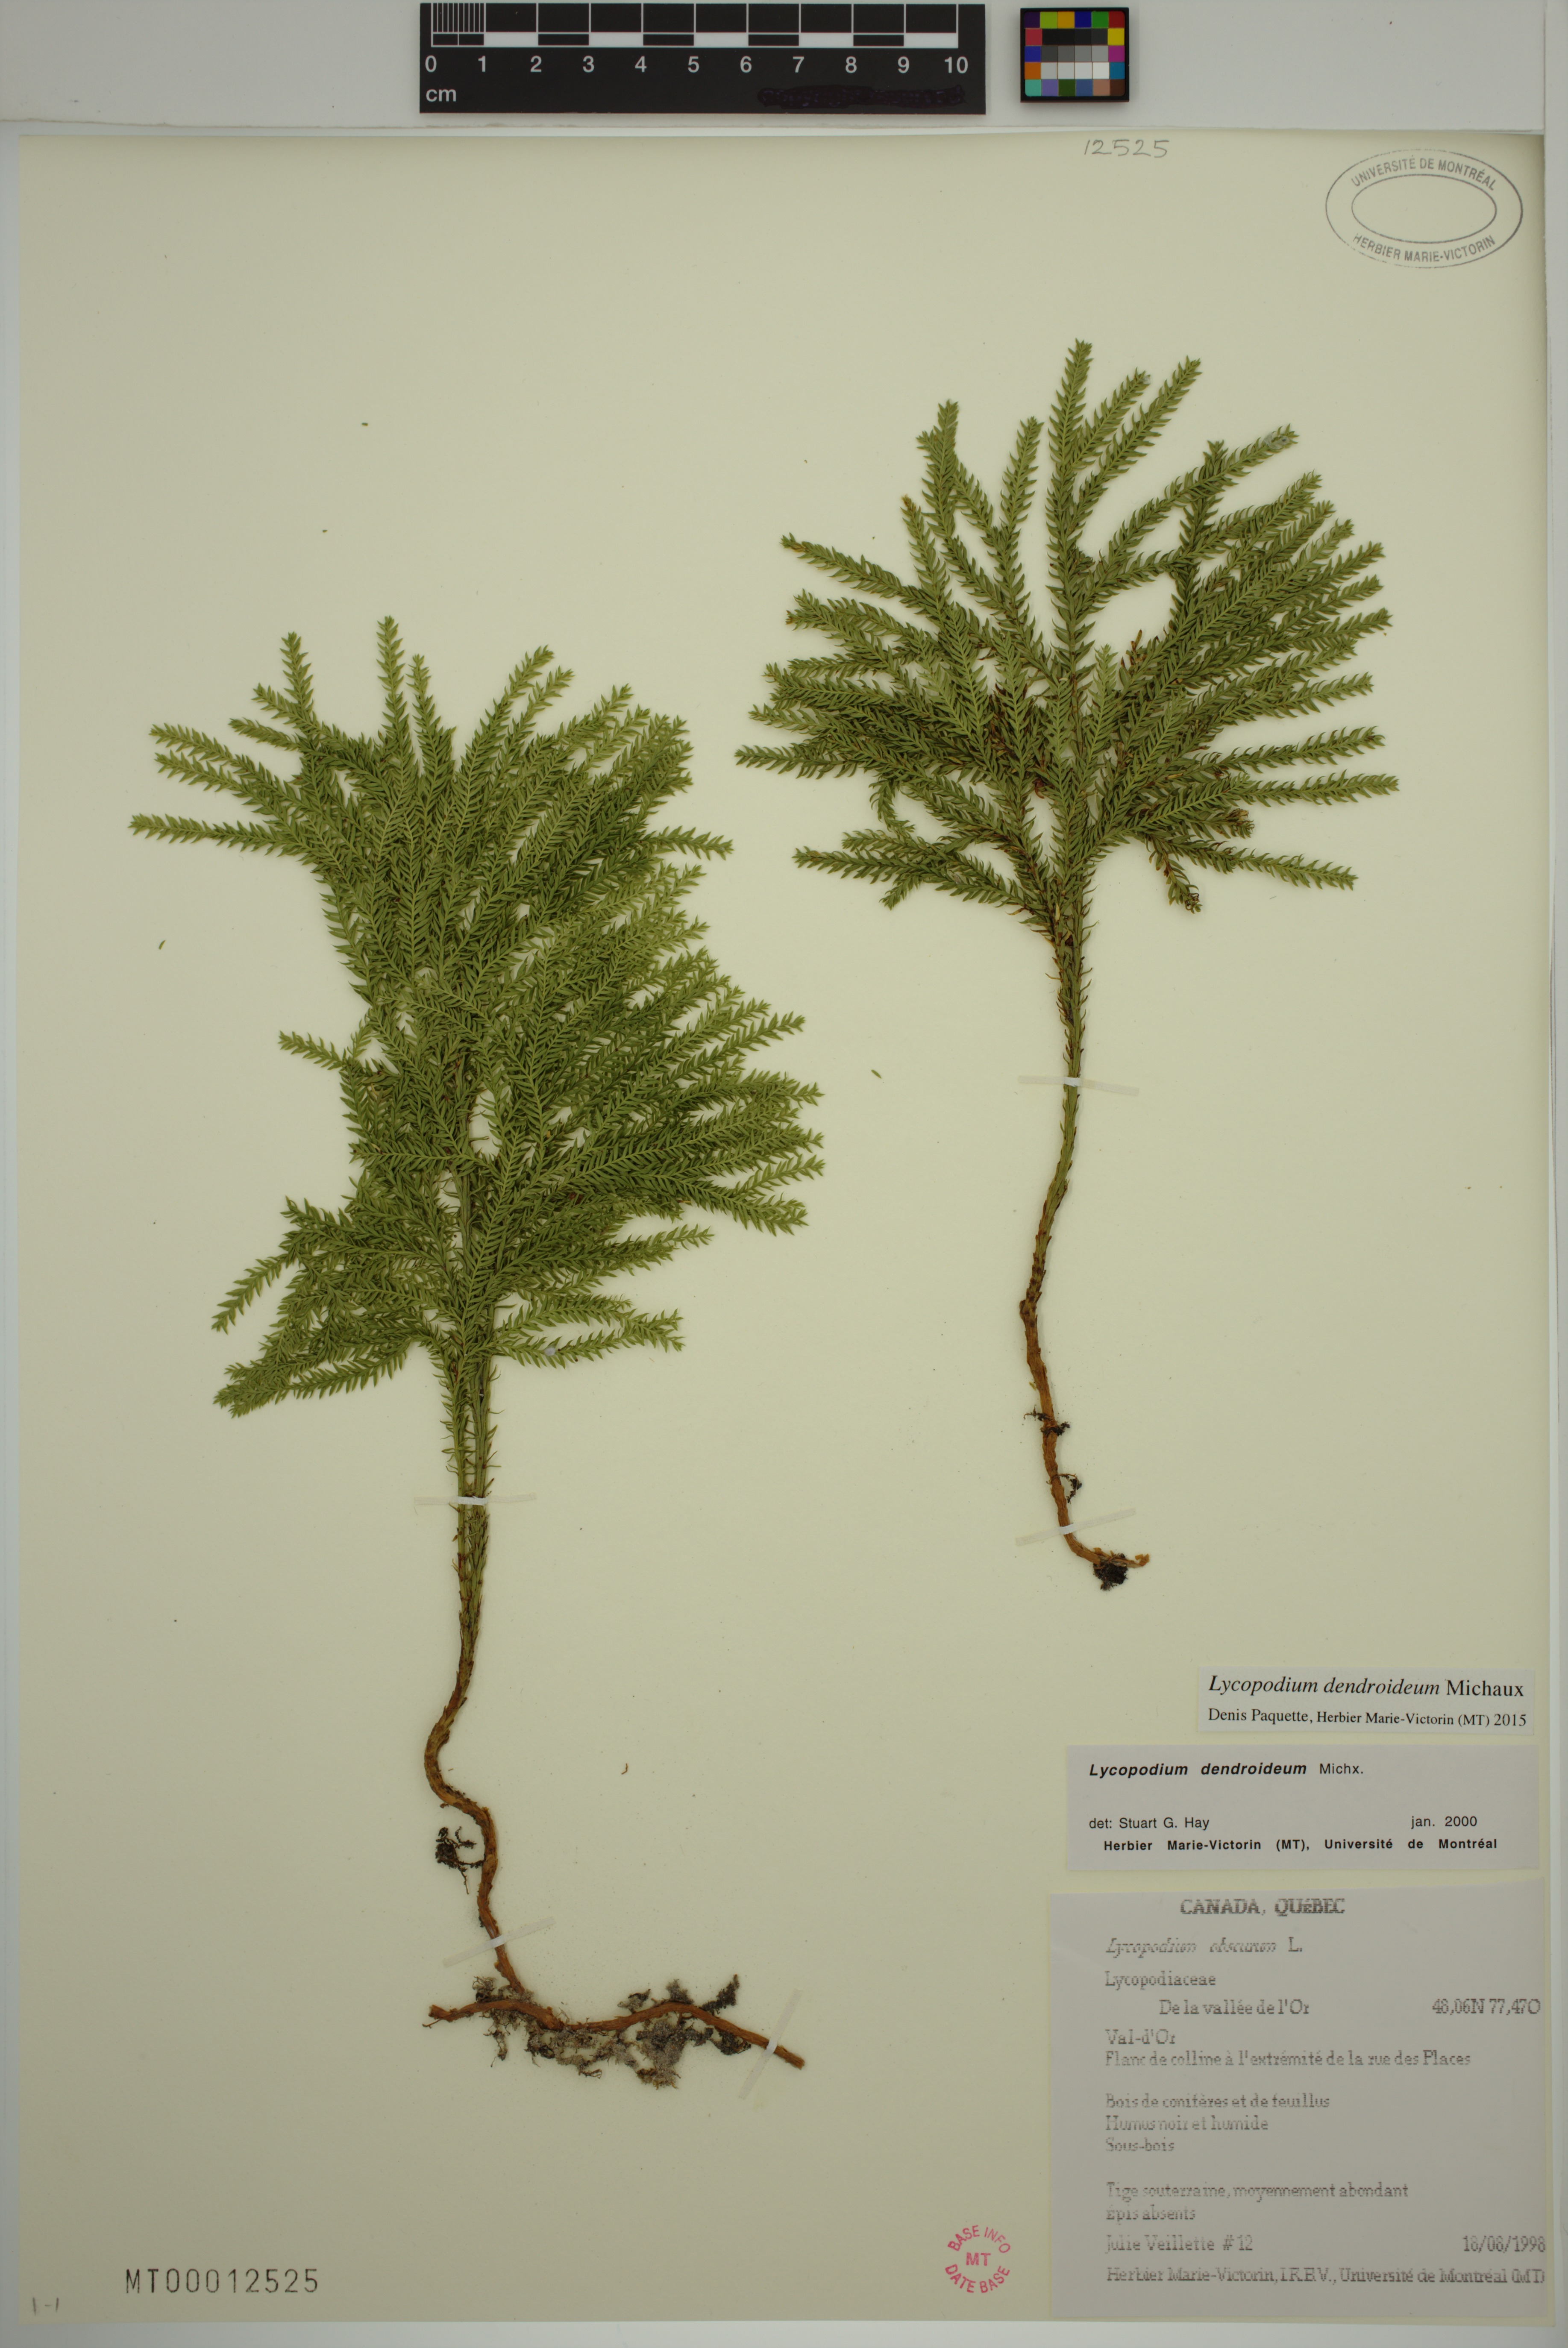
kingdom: Plantae
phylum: Tracheophyta
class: Lycopodiopsida
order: Lycopodiales
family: Lycopodiaceae
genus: Dendrolycopodium
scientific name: Dendrolycopodium dendroideum
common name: Northern tree-clubmoss
